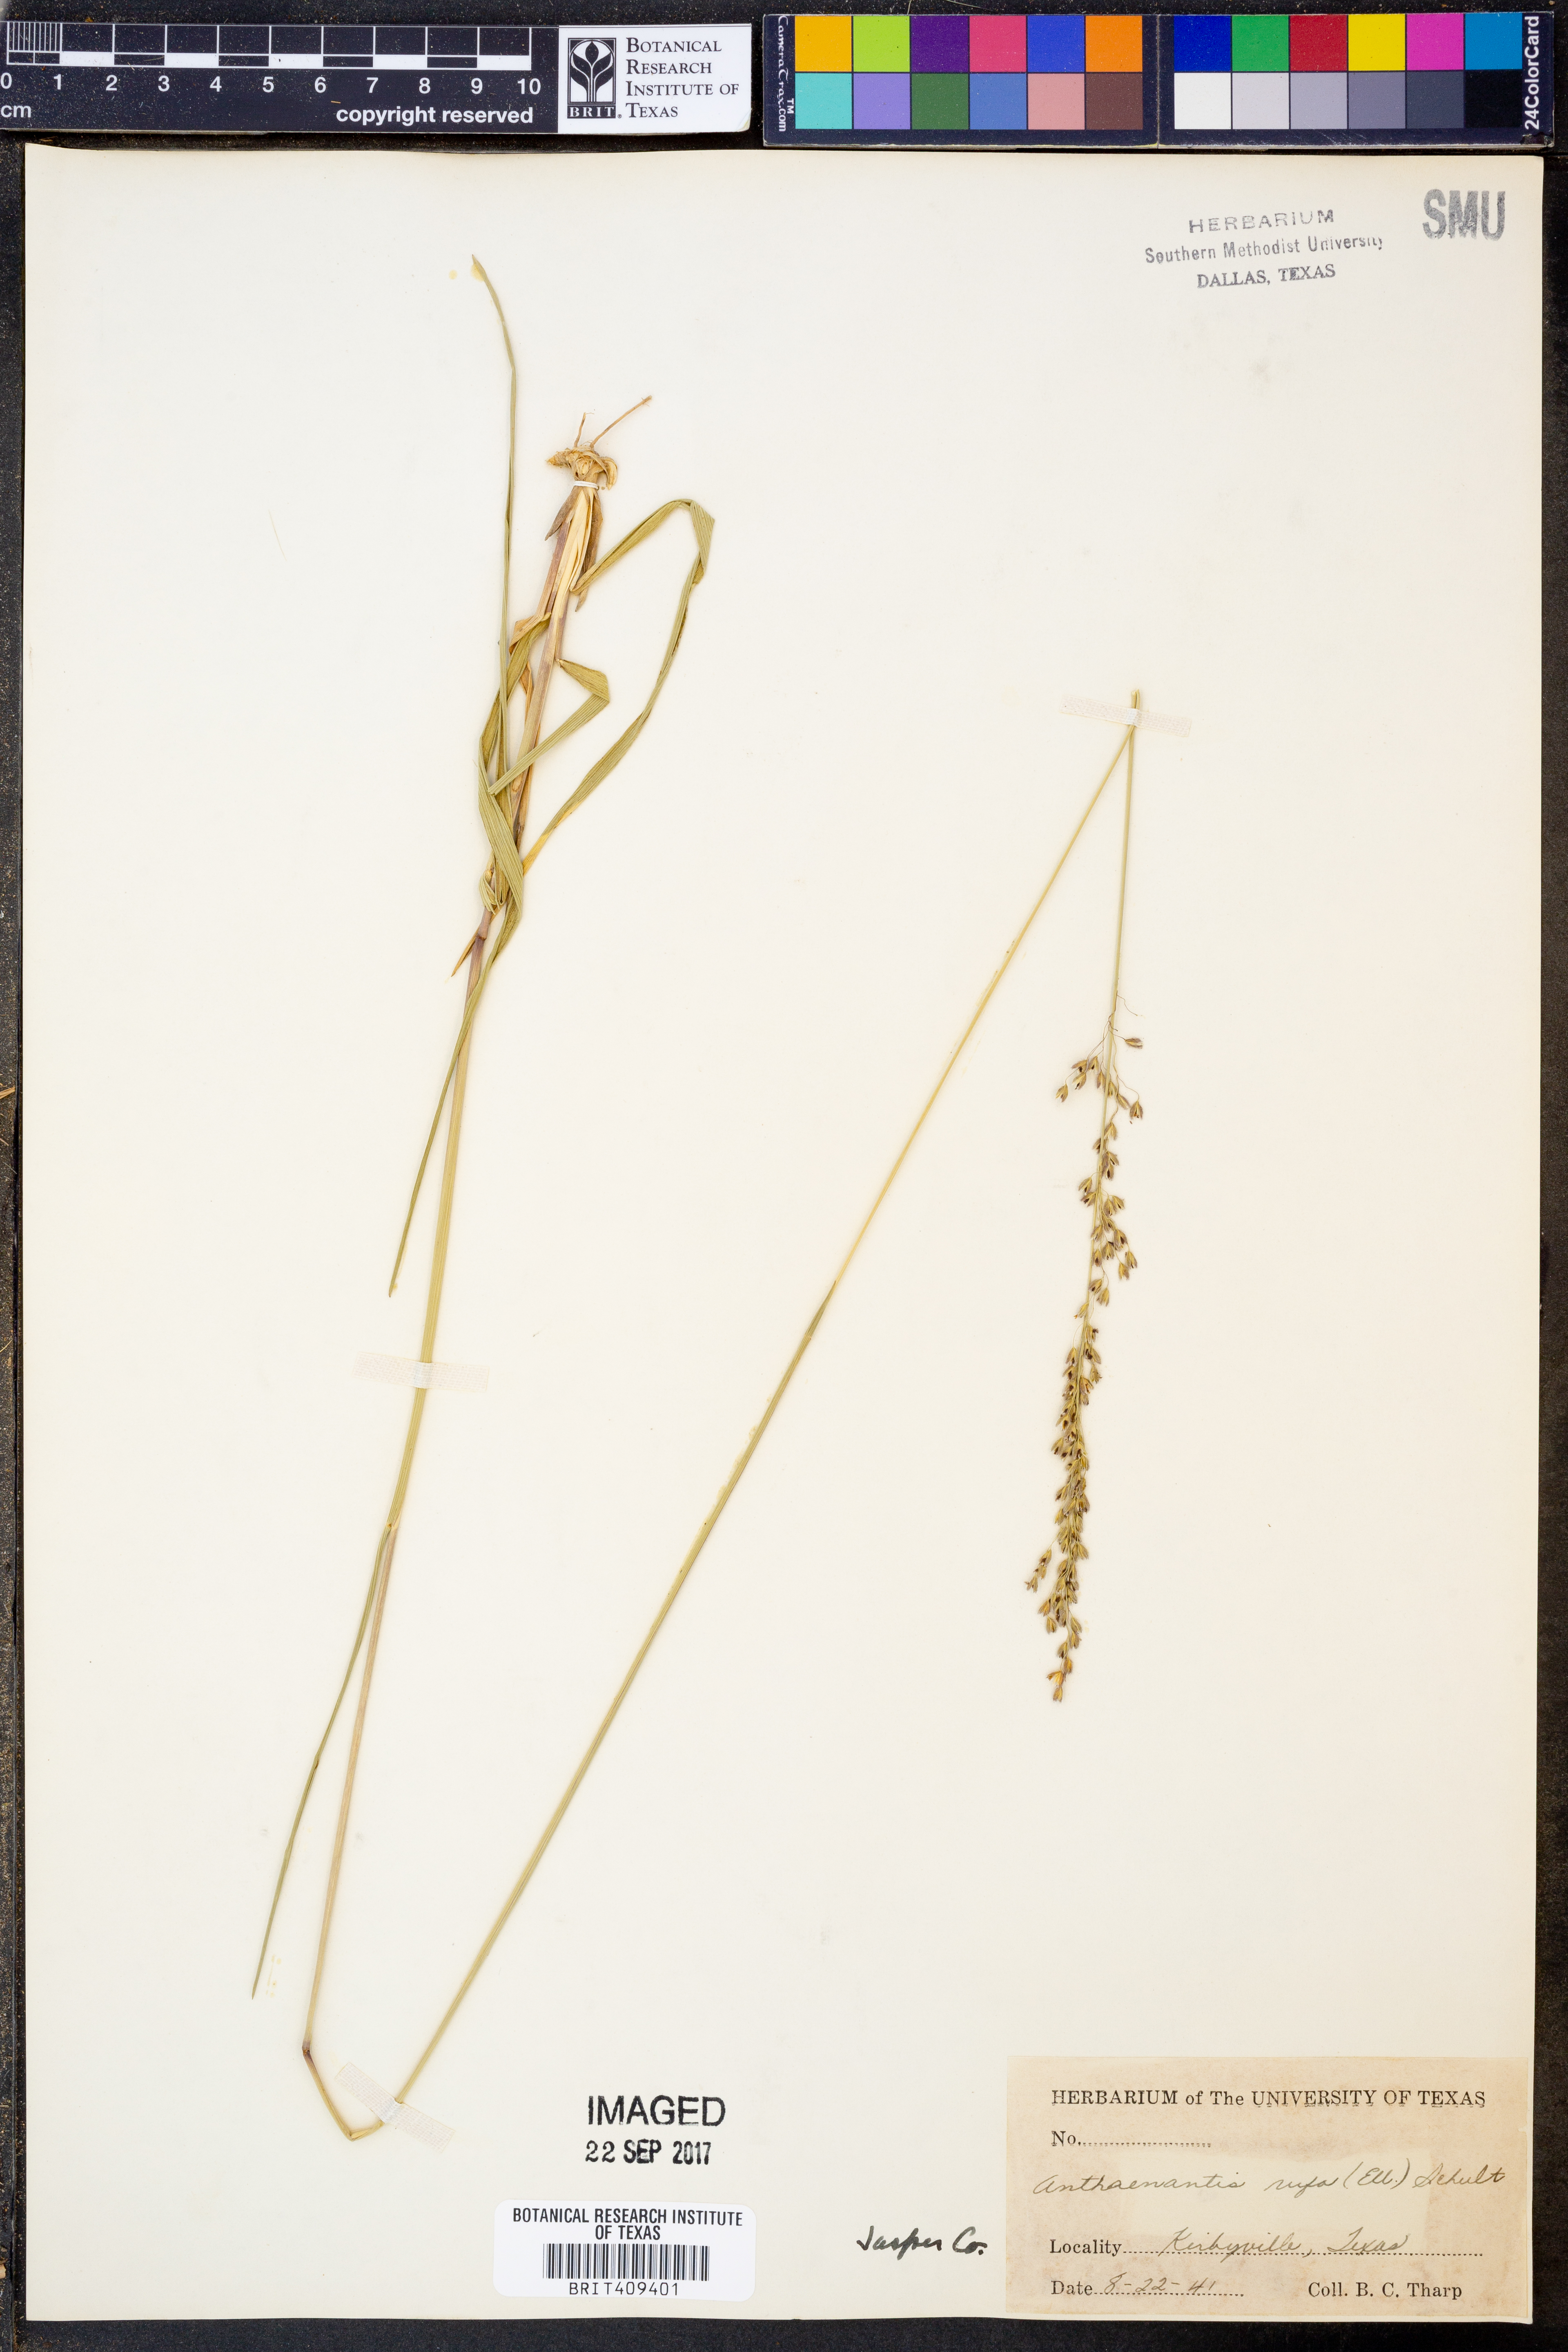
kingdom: Plantae
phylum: Tracheophyta
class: Liliopsida
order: Poales
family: Poaceae
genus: Anthenantia
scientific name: Anthenantia rufa
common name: Purple silkyscale
